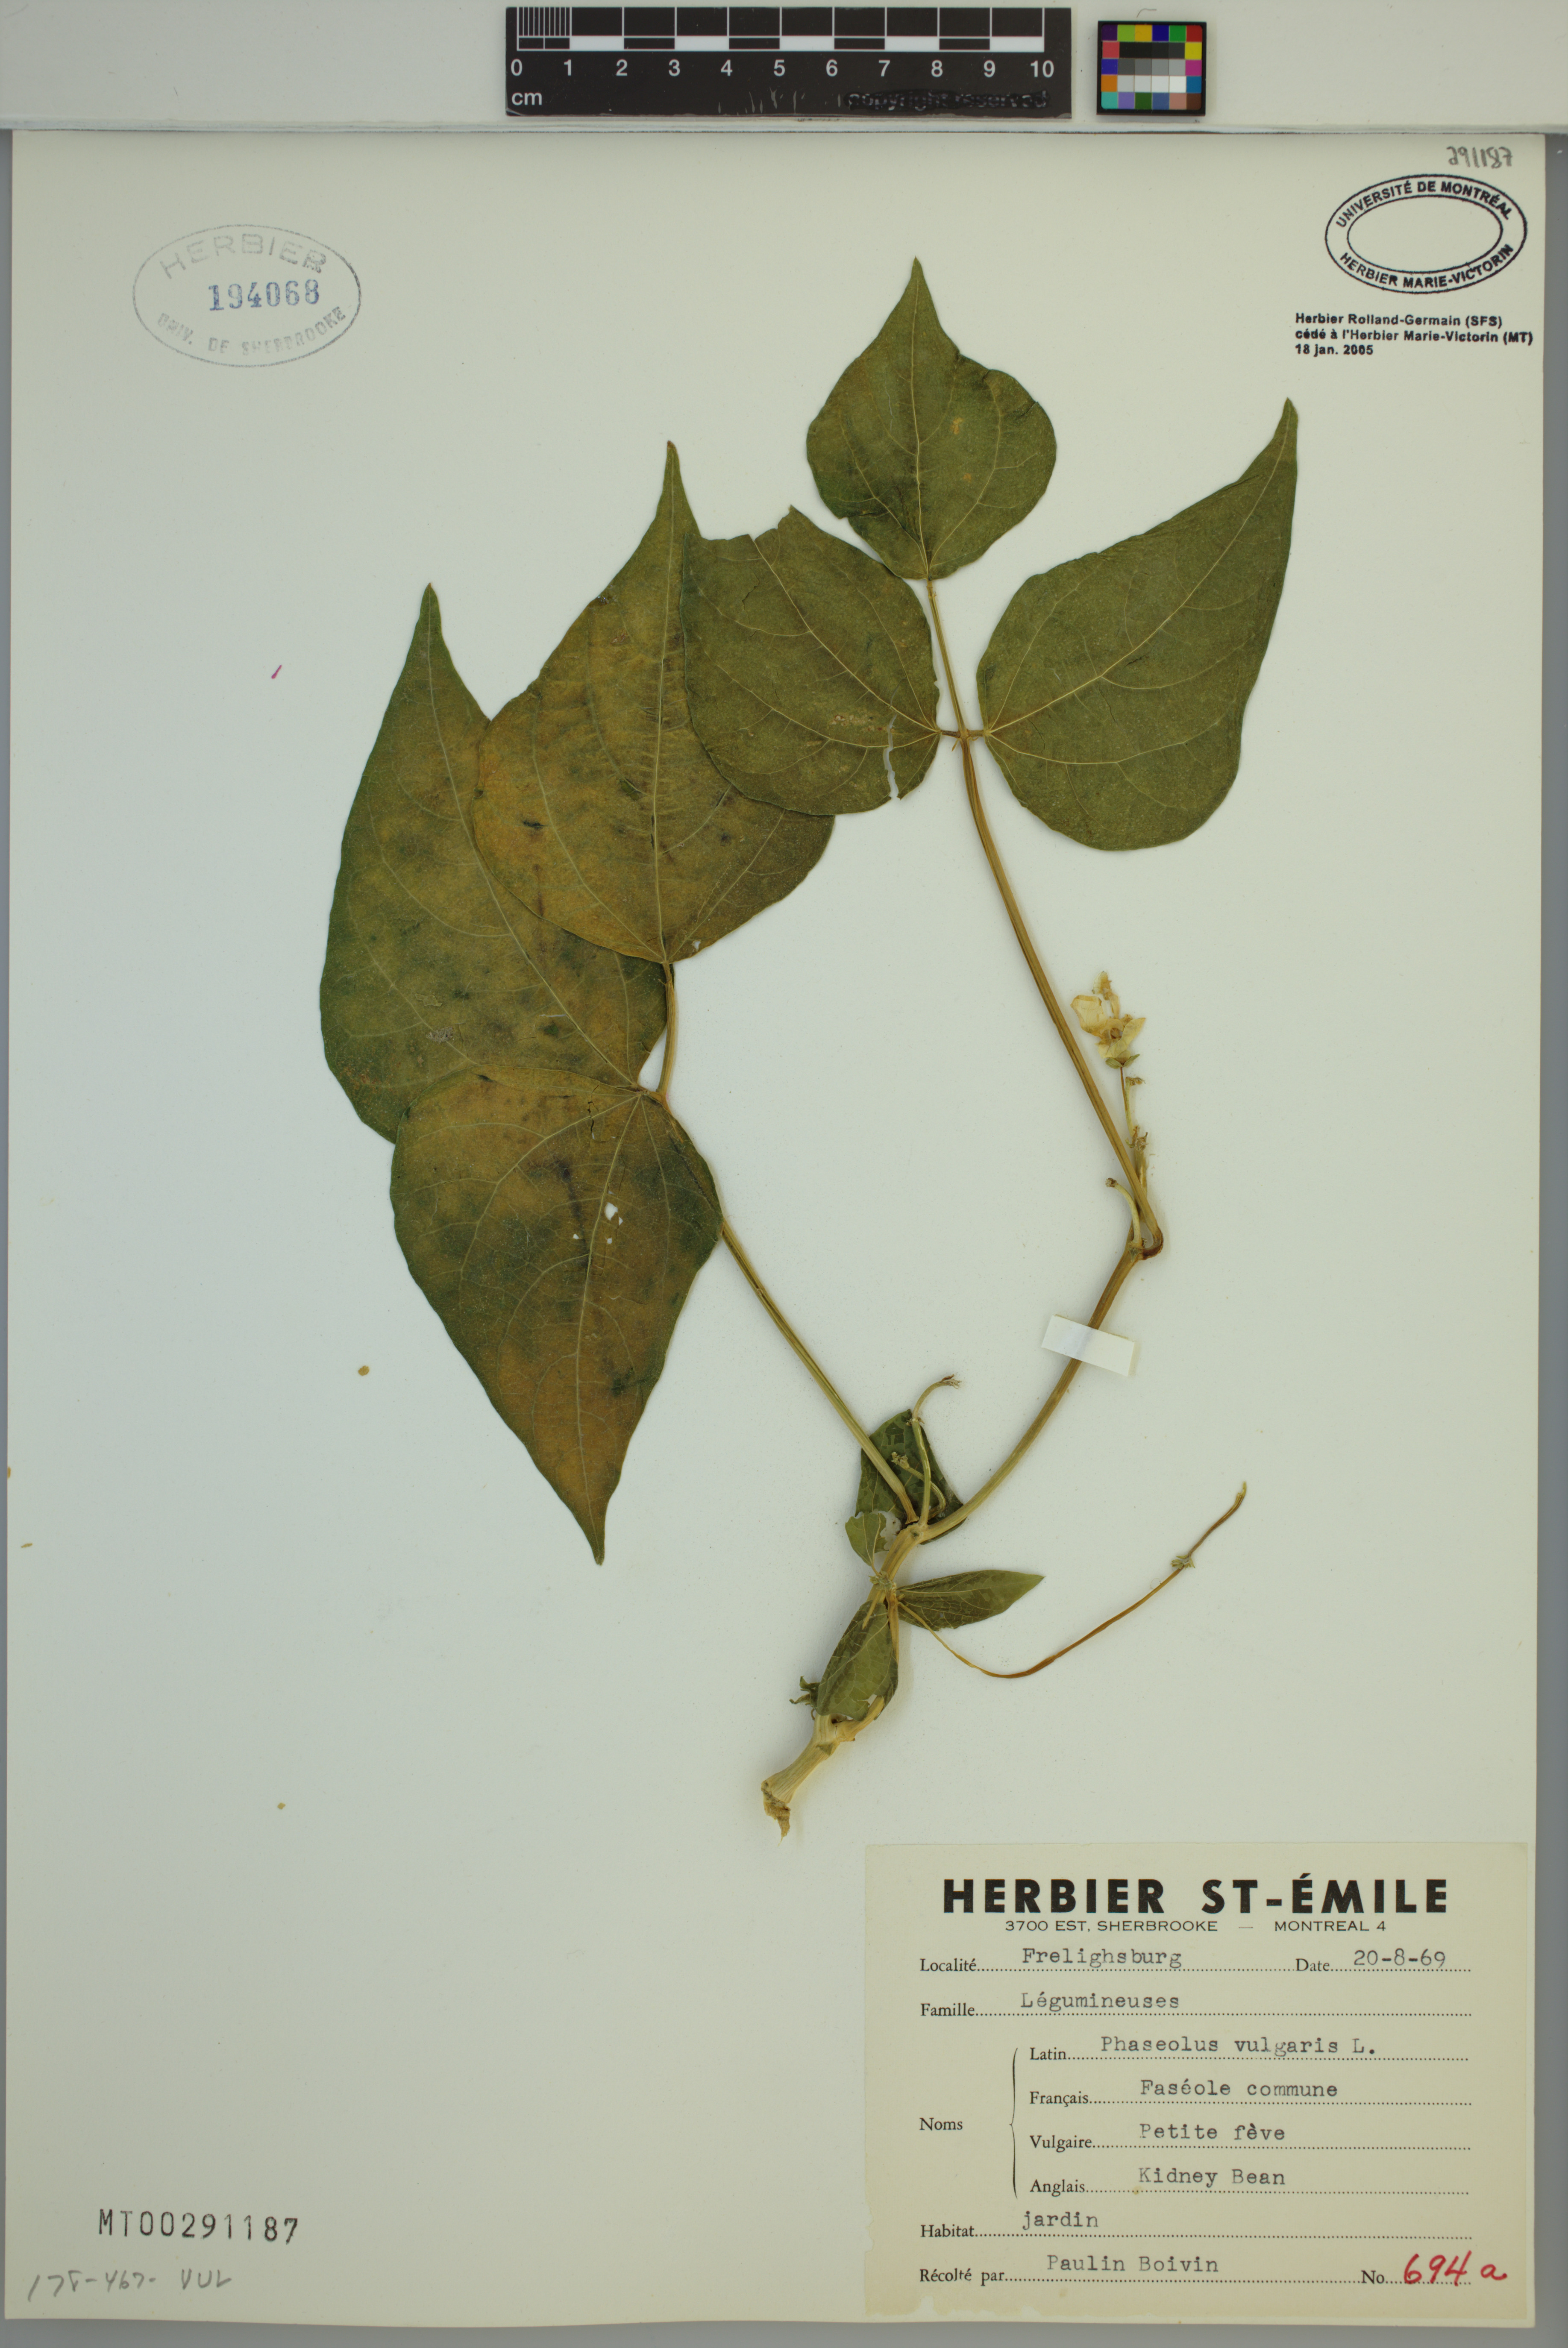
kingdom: Plantae
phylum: Tracheophyta
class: Magnoliopsida
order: Fabales
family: Fabaceae
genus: Phaseolus
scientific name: Phaseolus vulgaris
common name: Bean
